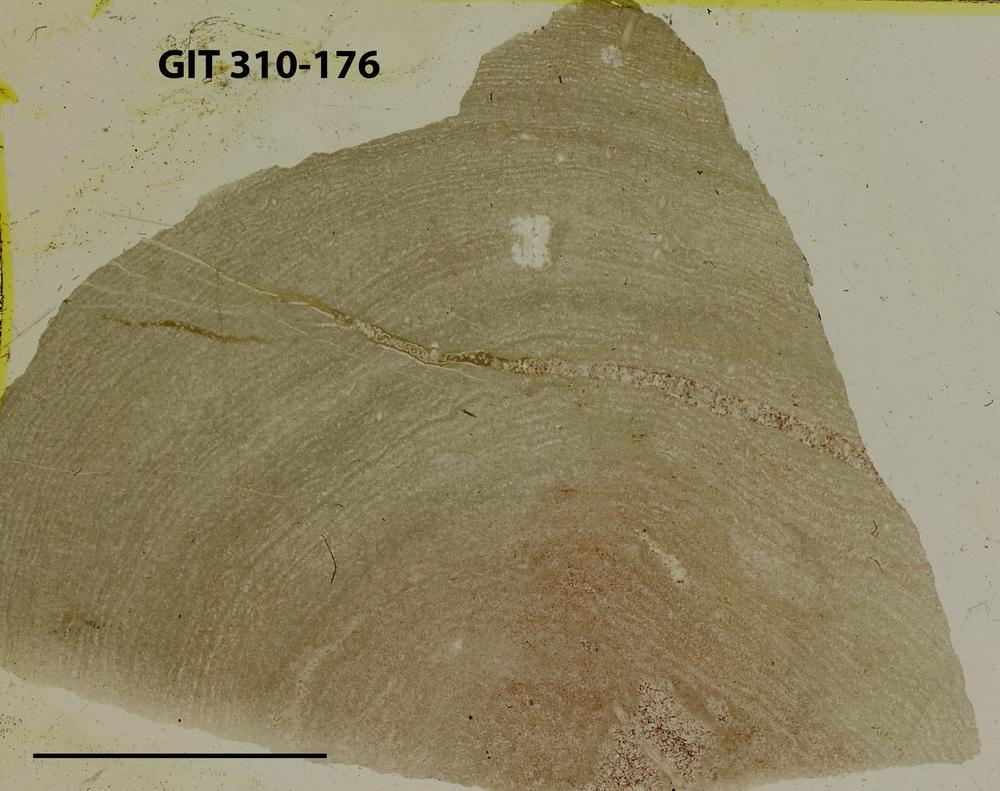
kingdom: Animalia
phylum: Porifera
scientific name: Porifera
